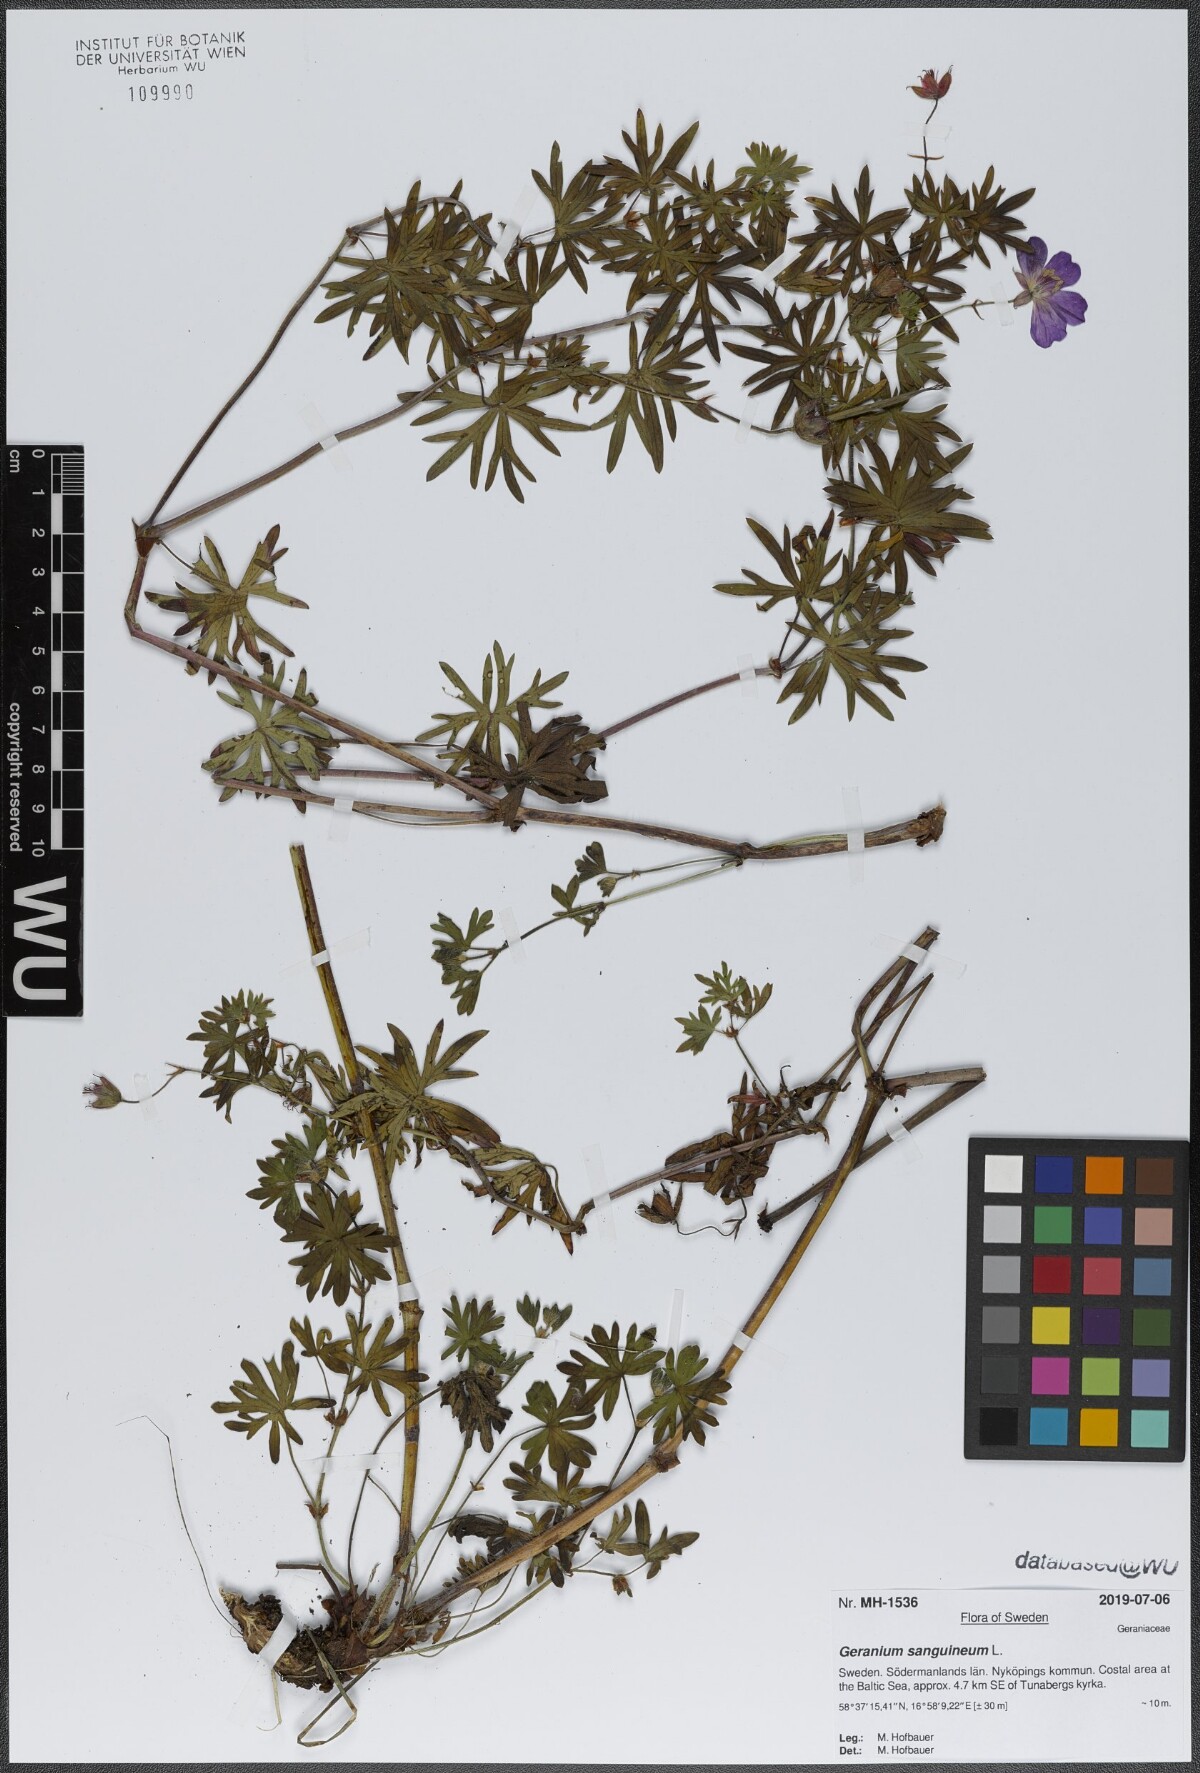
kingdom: Plantae
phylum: Tracheophyta
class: Magnoliopsida
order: Geraniales
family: Geraniaceae
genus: Geranium
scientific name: Geranium sanguineum
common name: Bloody crane's-bill
